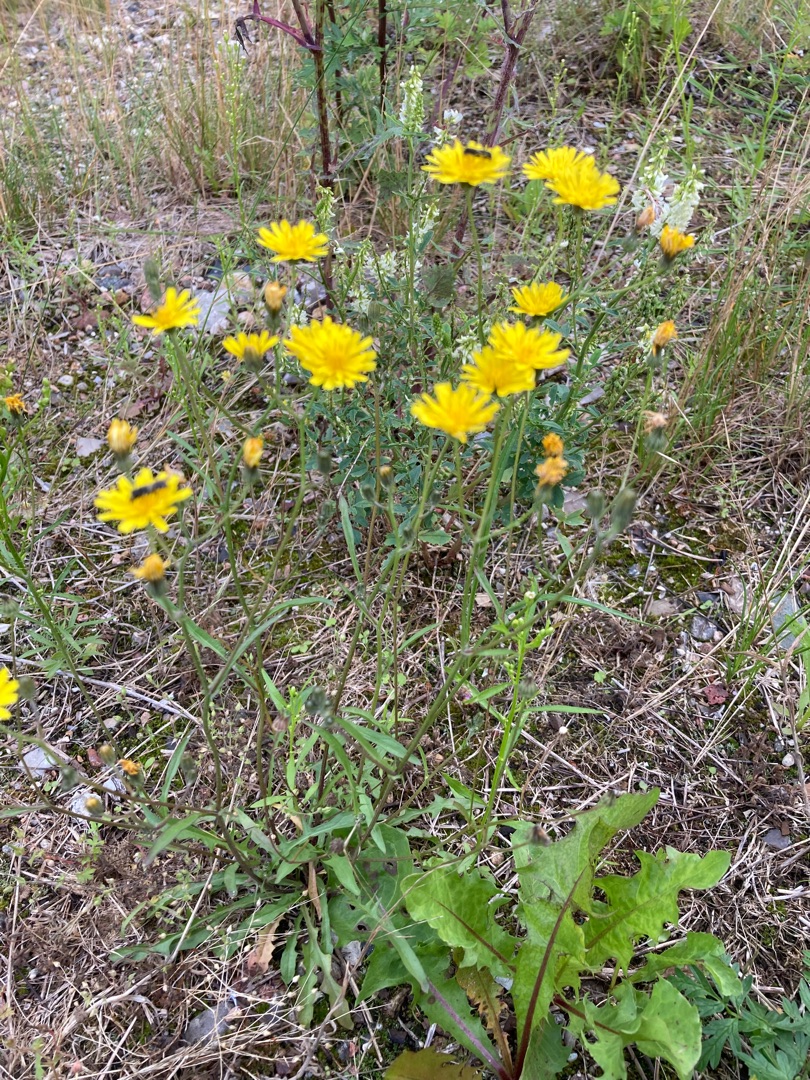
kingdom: Plantae
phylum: Tracheophyta
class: Magnoliopsida
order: Asterales
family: Asteraceae
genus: Crepis
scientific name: Crepis capillaris
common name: Grøn høgeskæg
